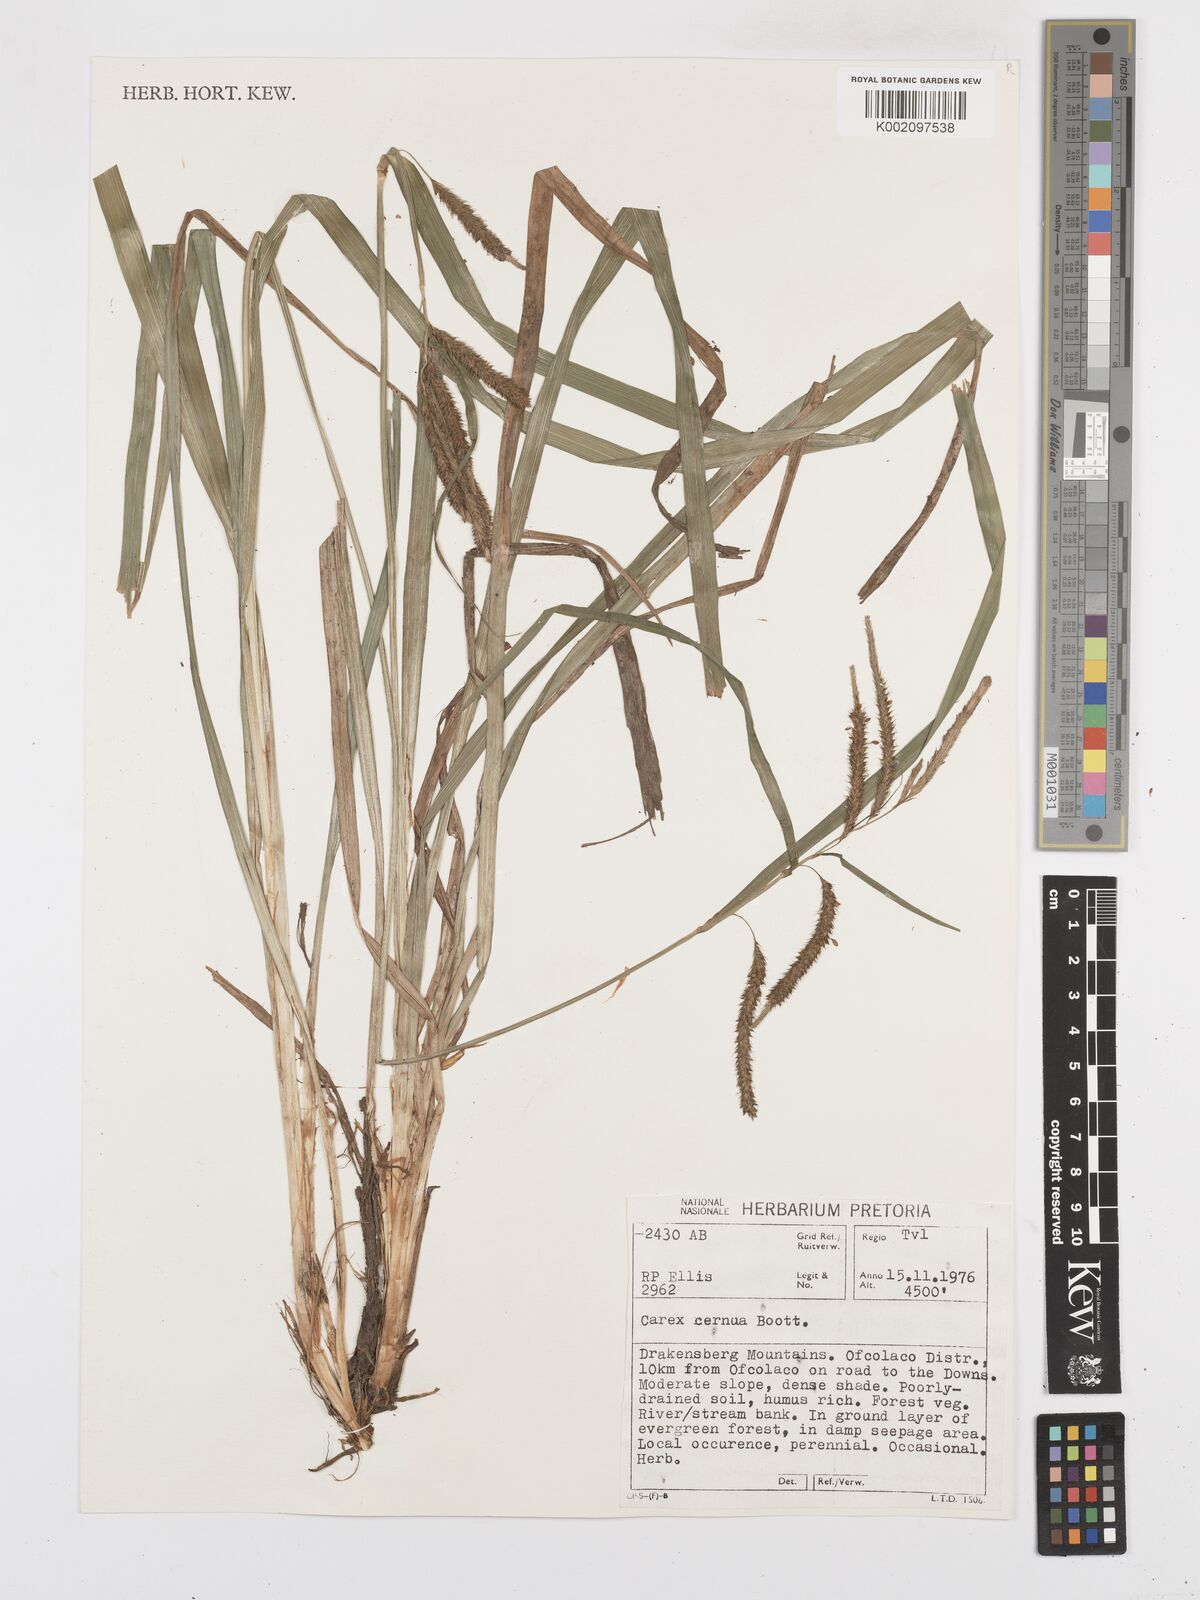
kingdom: Plantae
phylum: Tracheophyta
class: Liliopsida
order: Poales
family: Cyperaceae
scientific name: Cyperaceae
